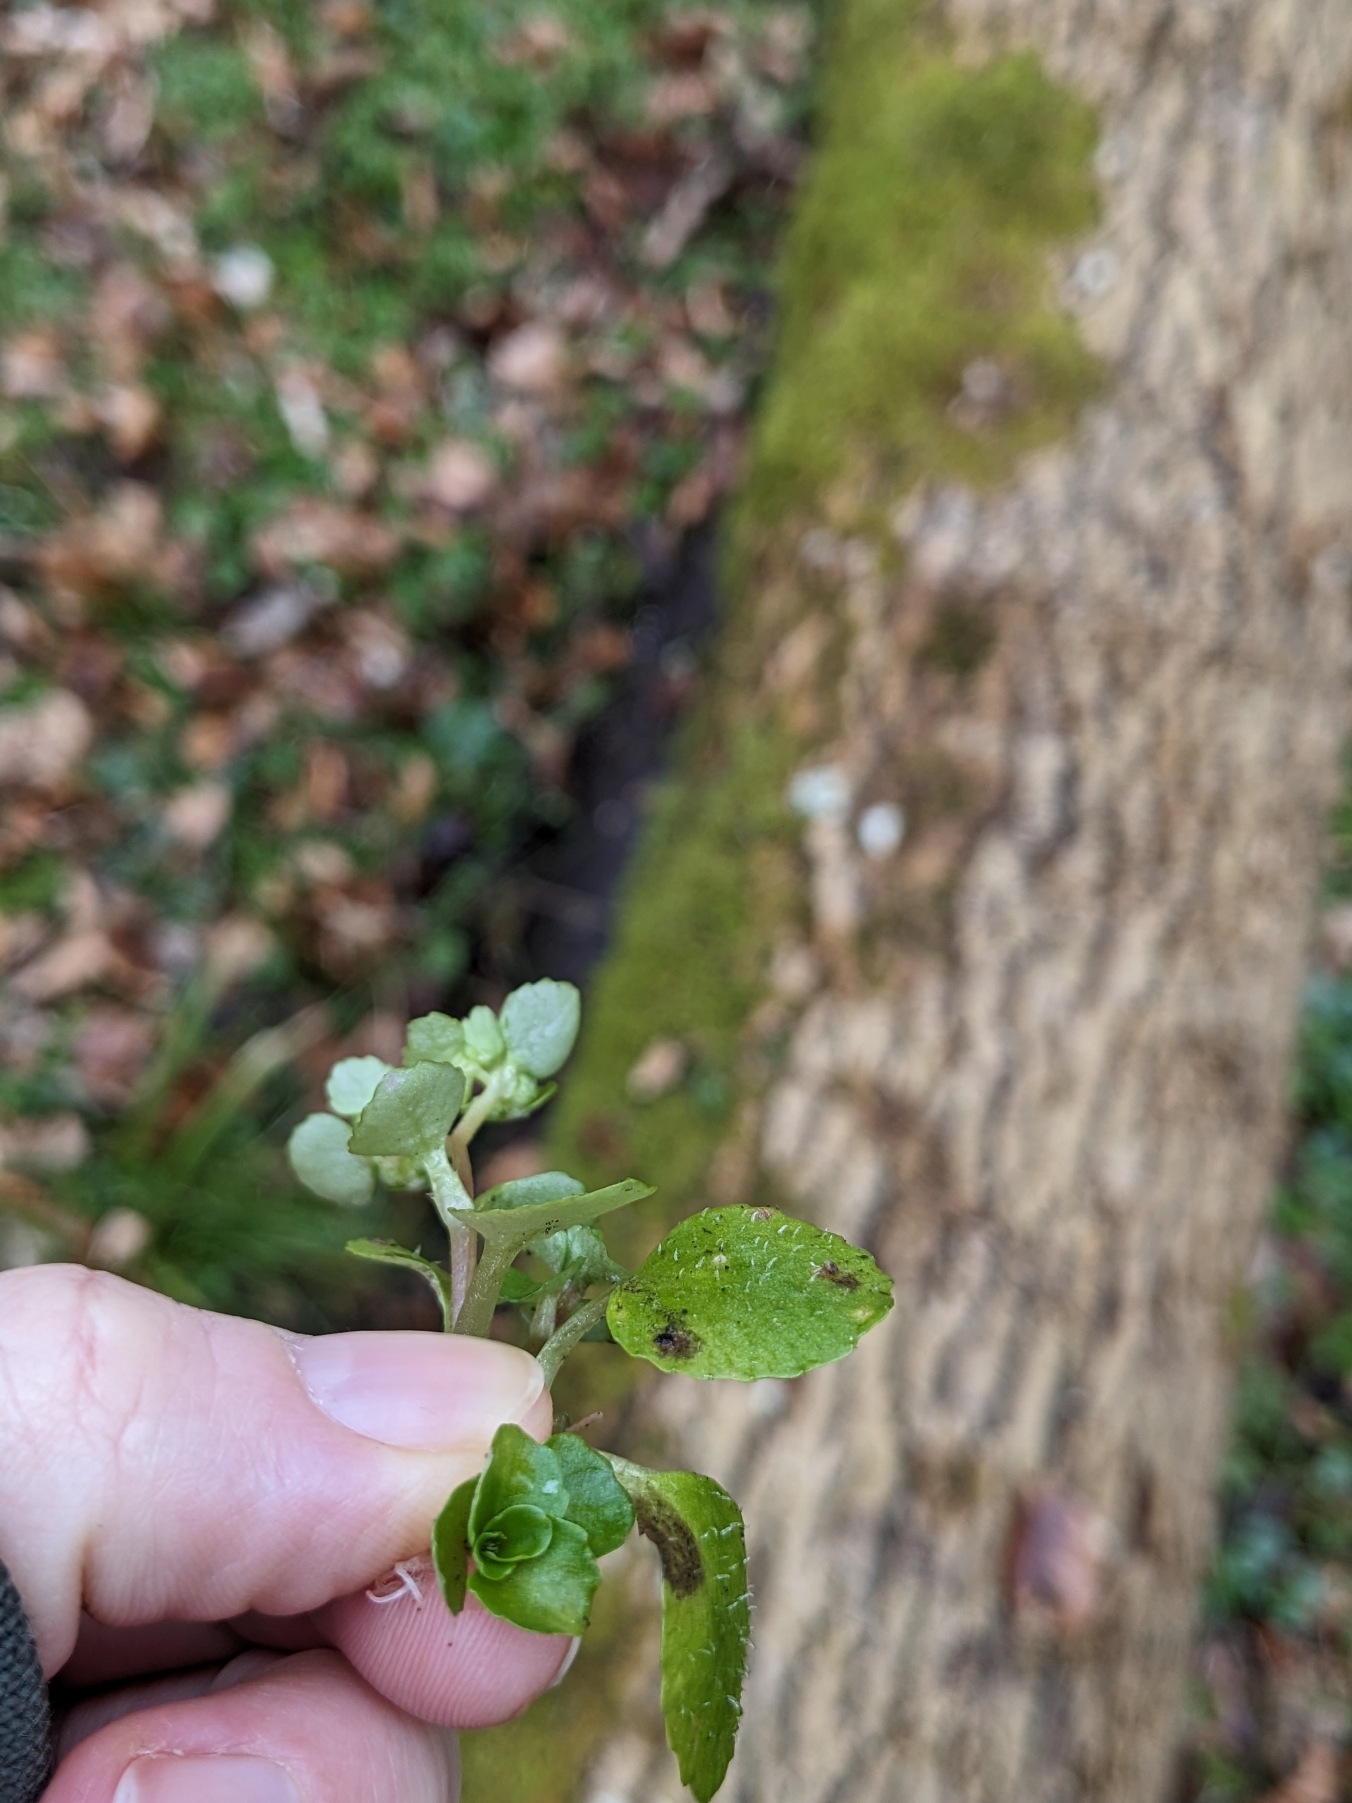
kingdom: Plantae
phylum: Tracheophyta
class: Magnoliopsida
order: Saxifragales
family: Saxifragaceae
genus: Chrysosplenium
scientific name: Chrysosplenium oppositifolium
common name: Småbladet milturt
